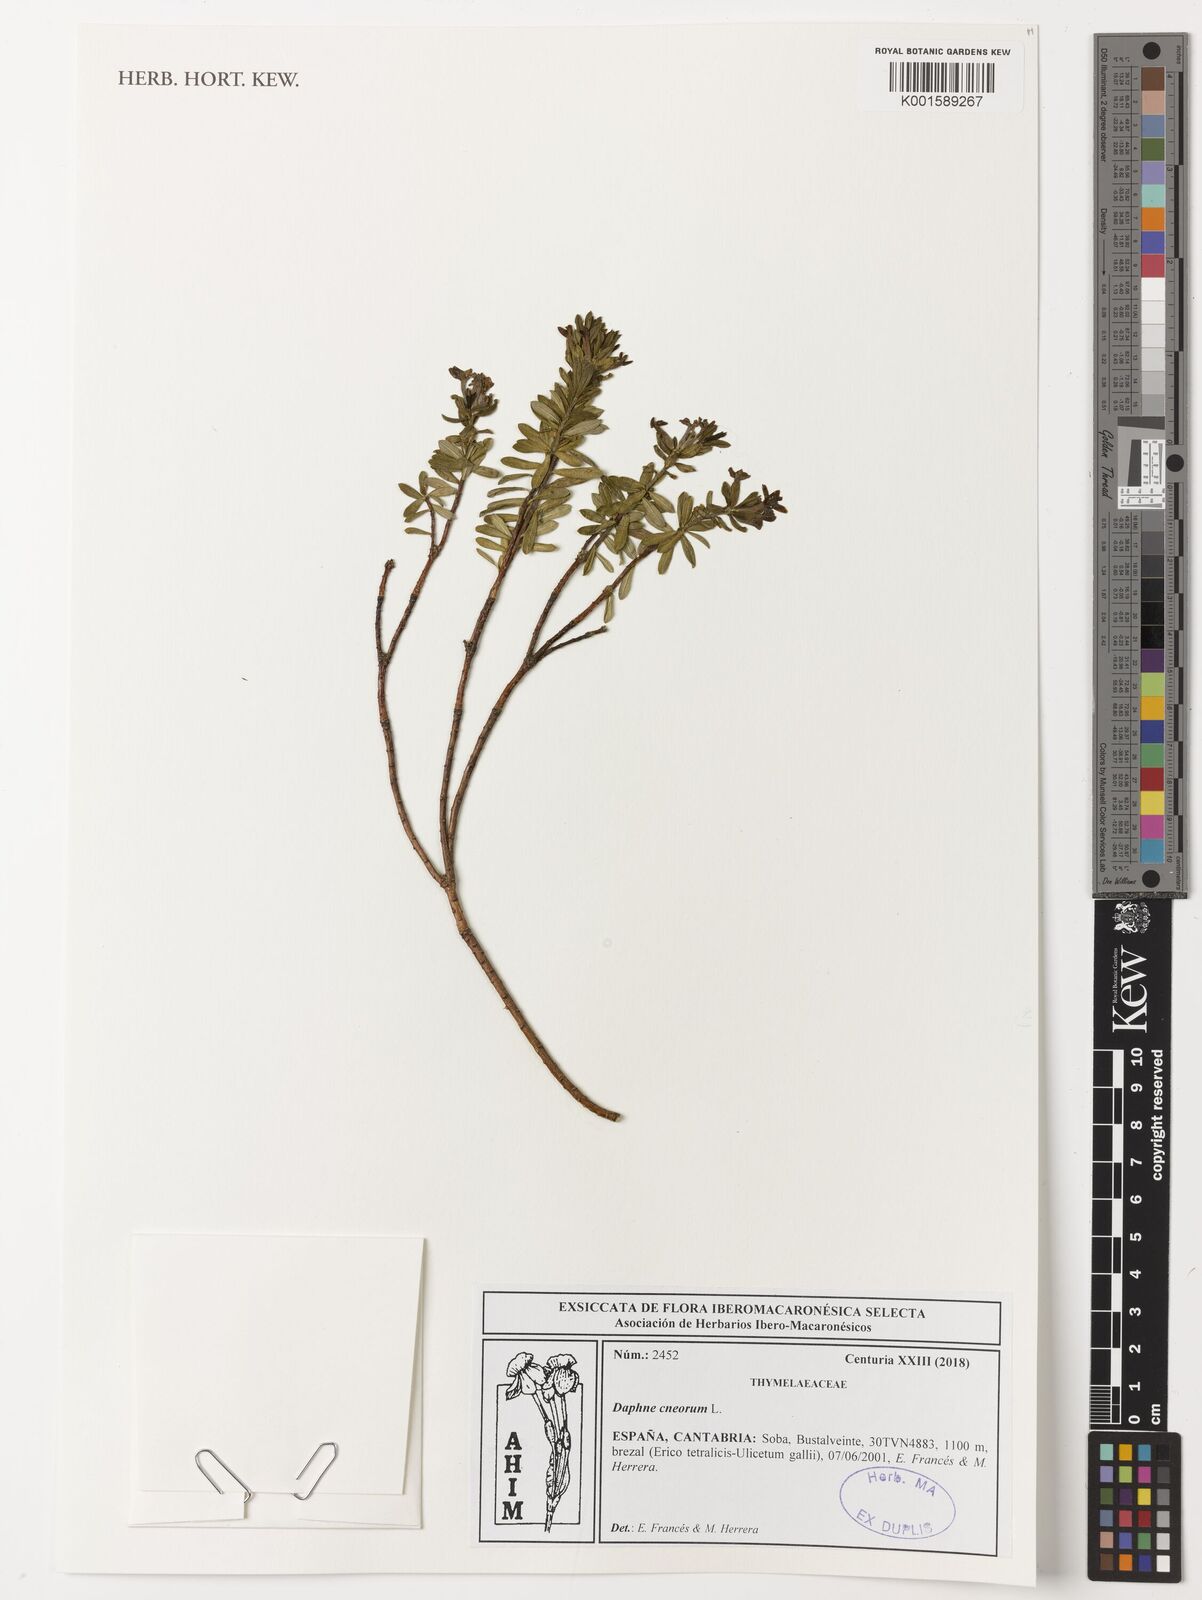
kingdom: Plantae
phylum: Tracheophyta
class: Magnoliopsida
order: Malvales
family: Thymelaeaceae
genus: Daphne
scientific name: Daphne cneorum
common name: Garland-flower
